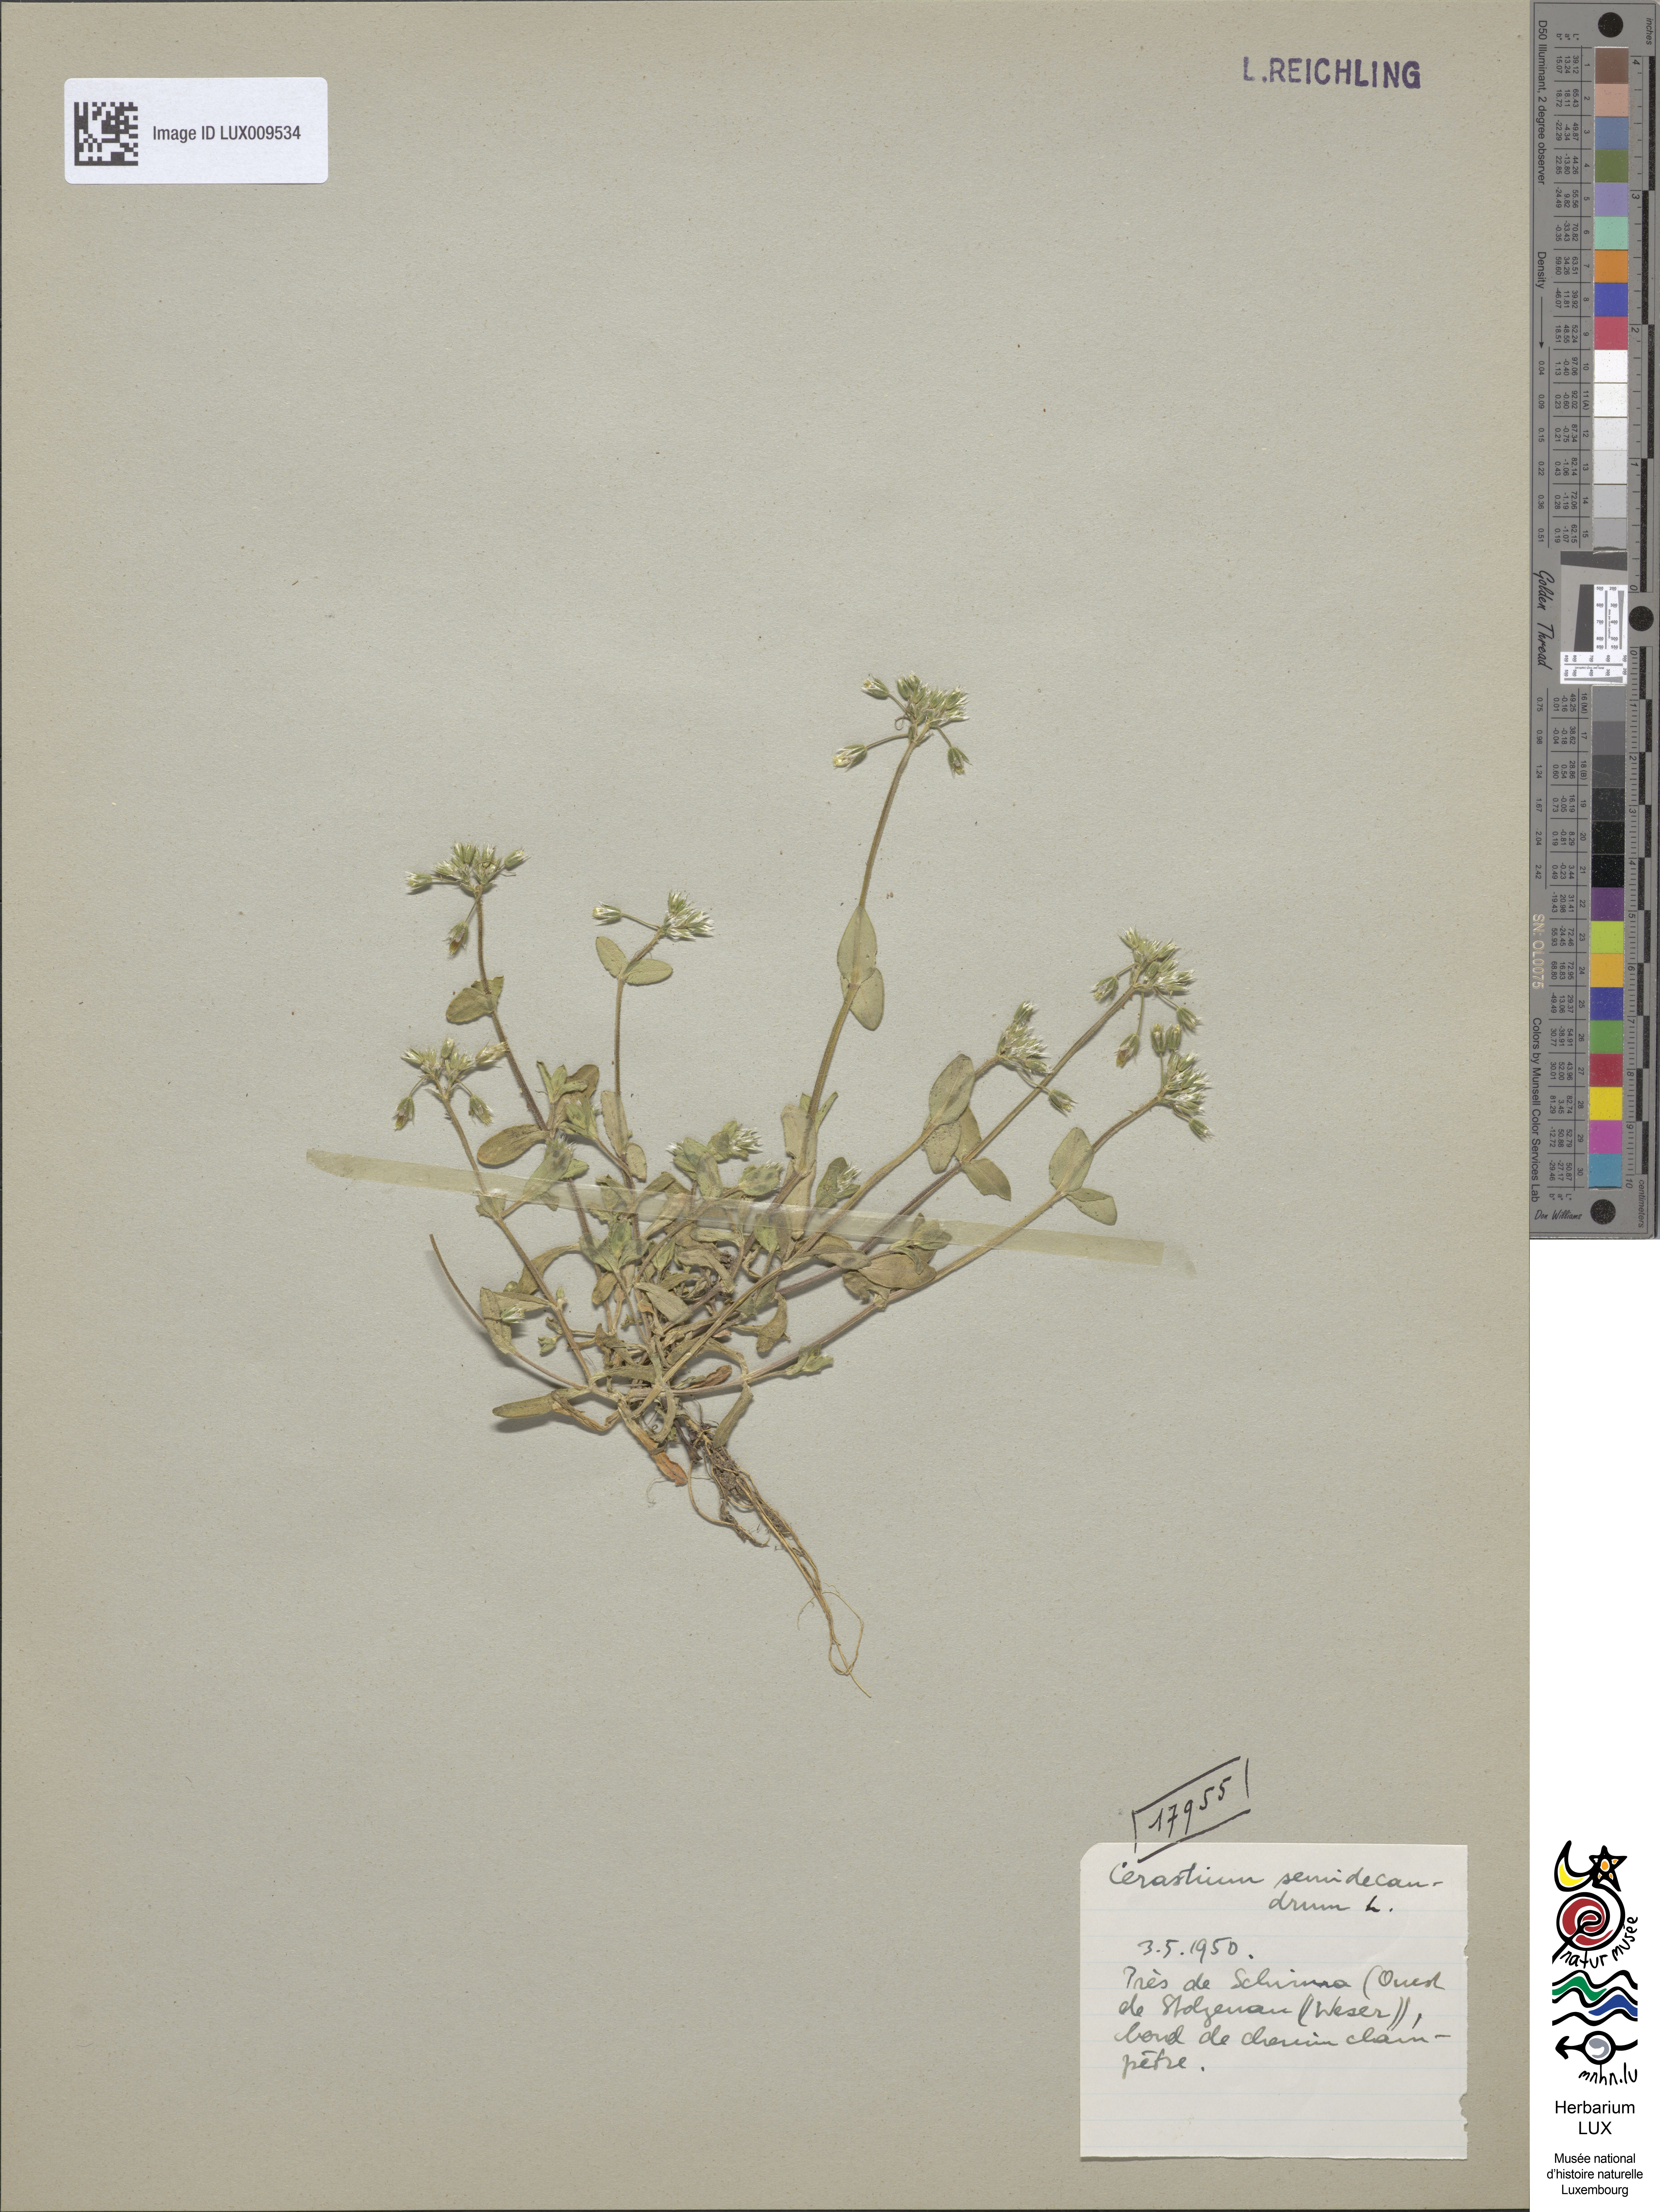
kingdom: Plantae
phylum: Tracheophyta
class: Magnoliopsida
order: Caryophyllales
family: Caryophyllaceae
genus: Cerastium
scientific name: Cerastium semidecandrum
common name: Little mouse-ear
